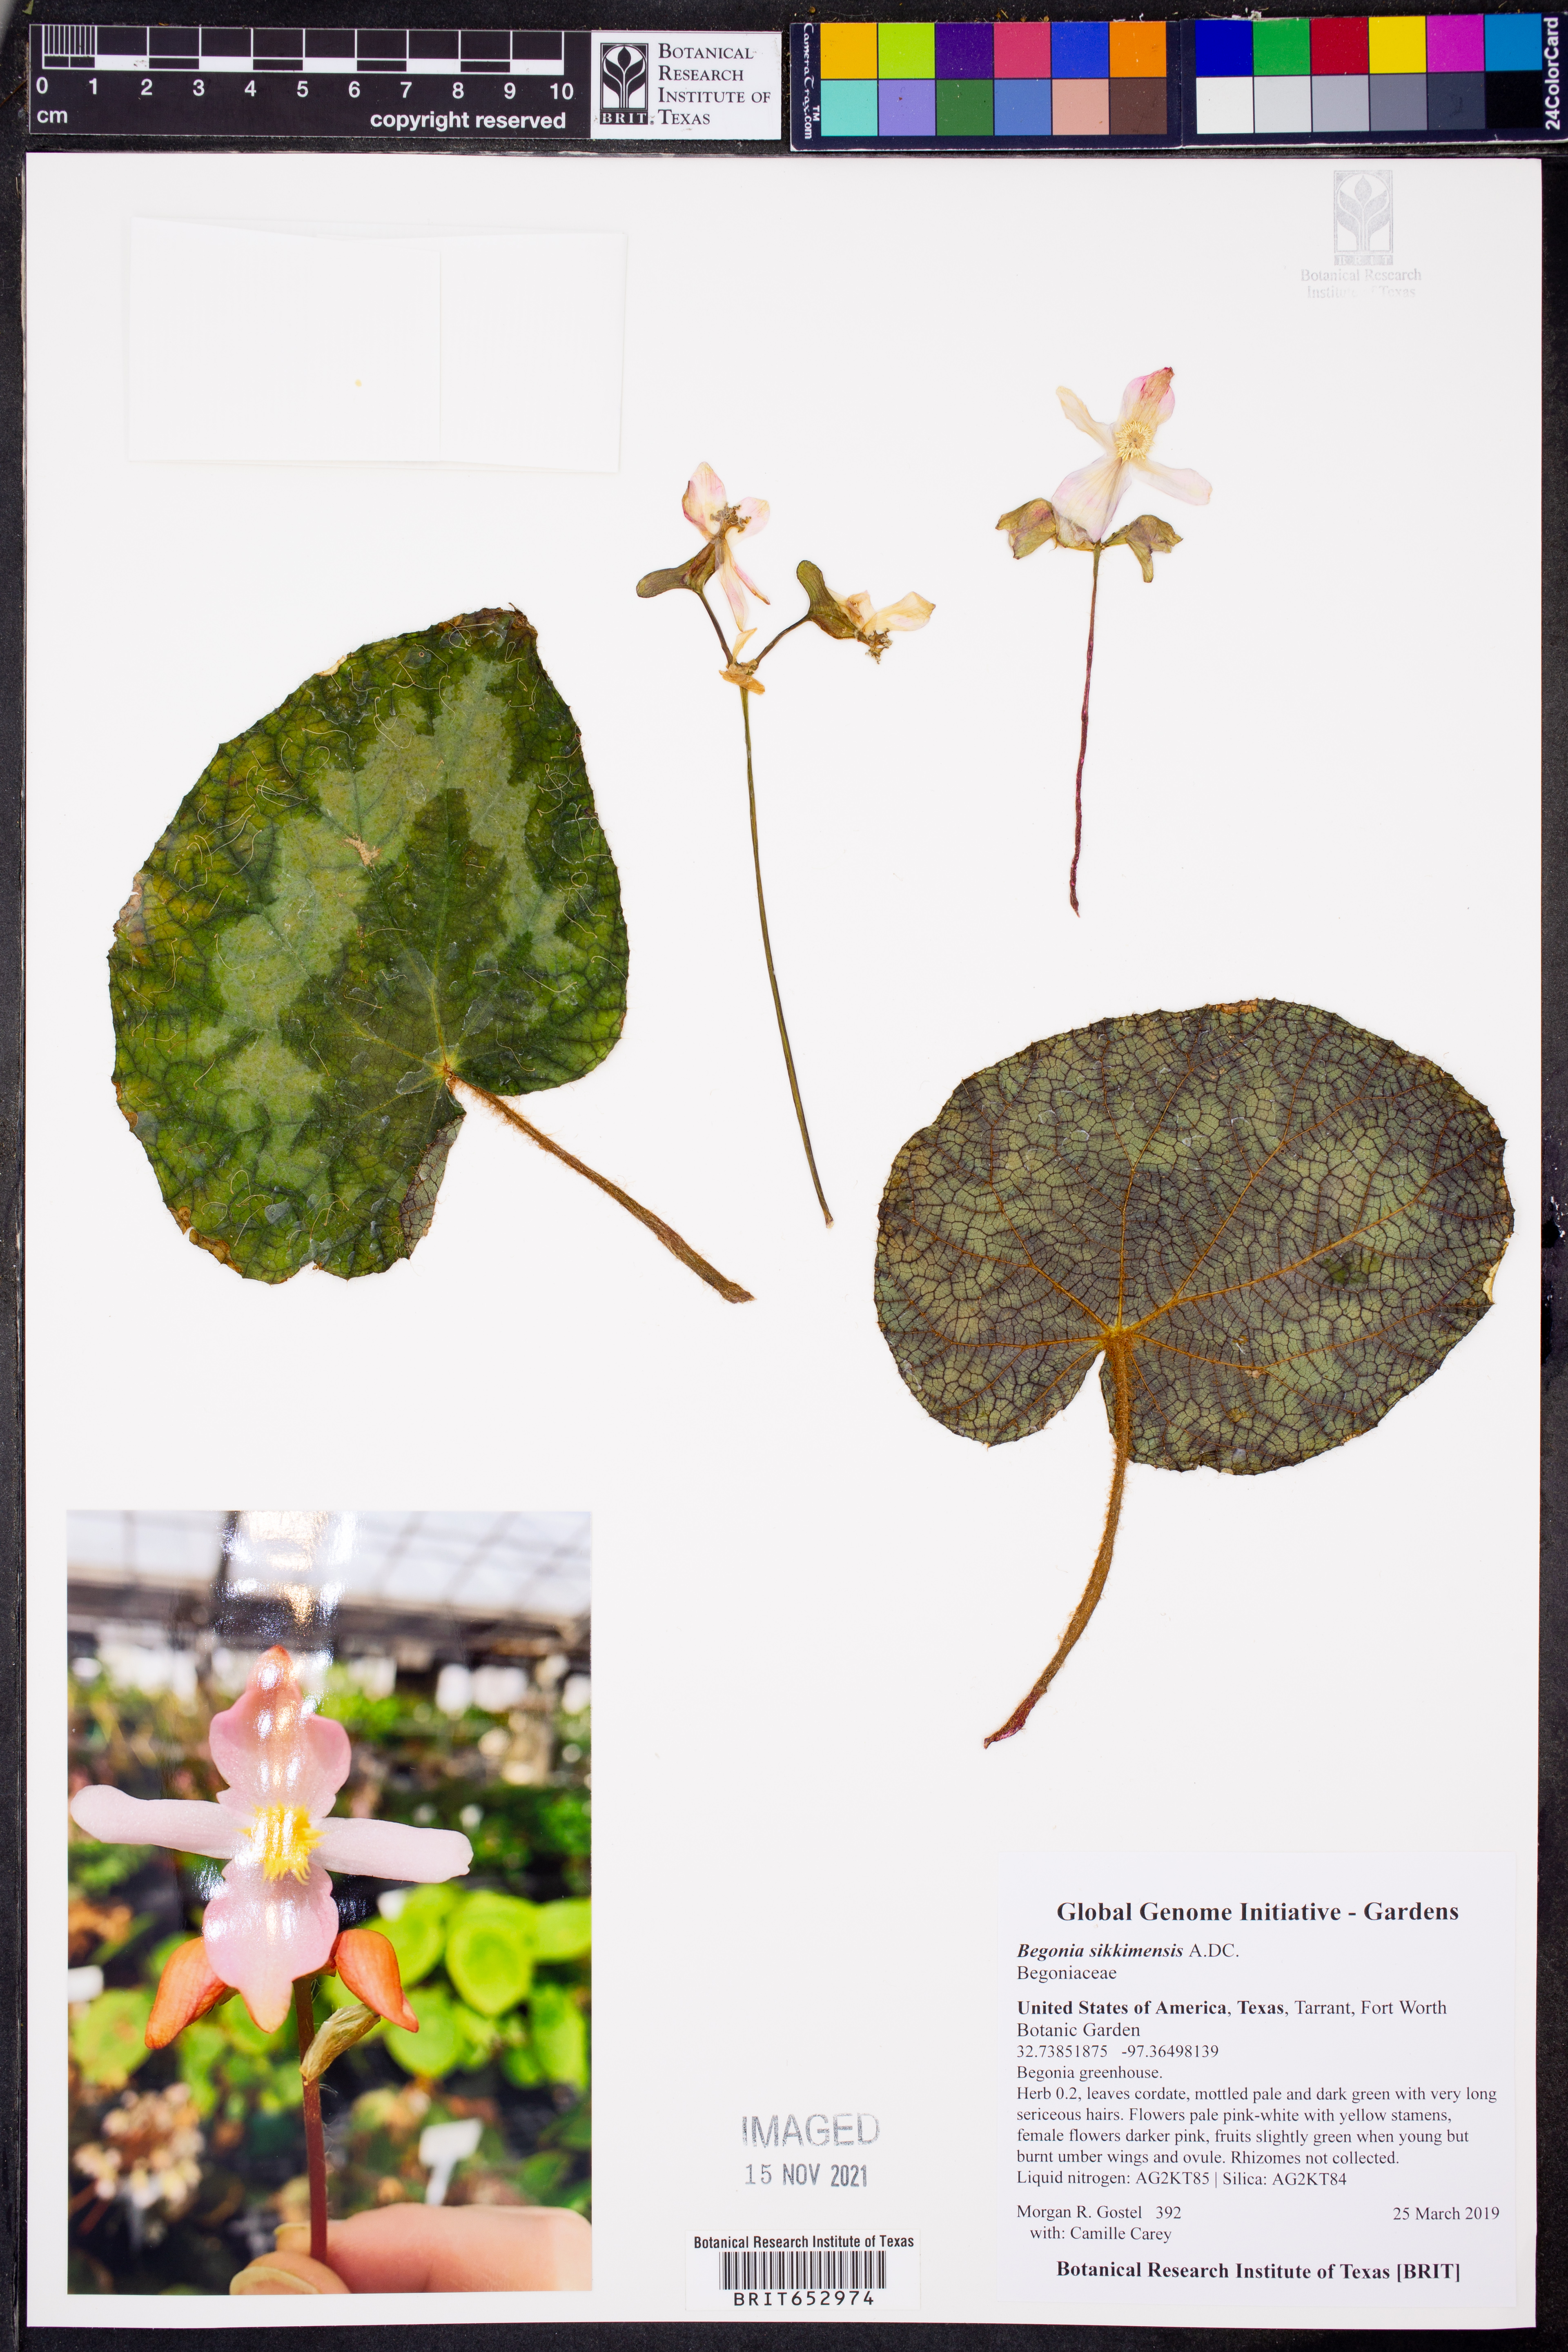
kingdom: Plantae
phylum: Tracheophyta
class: Magnoliopsida
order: Cucurbitales
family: Begoniaceae
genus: Begonia
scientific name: Begonia sikkimensis
